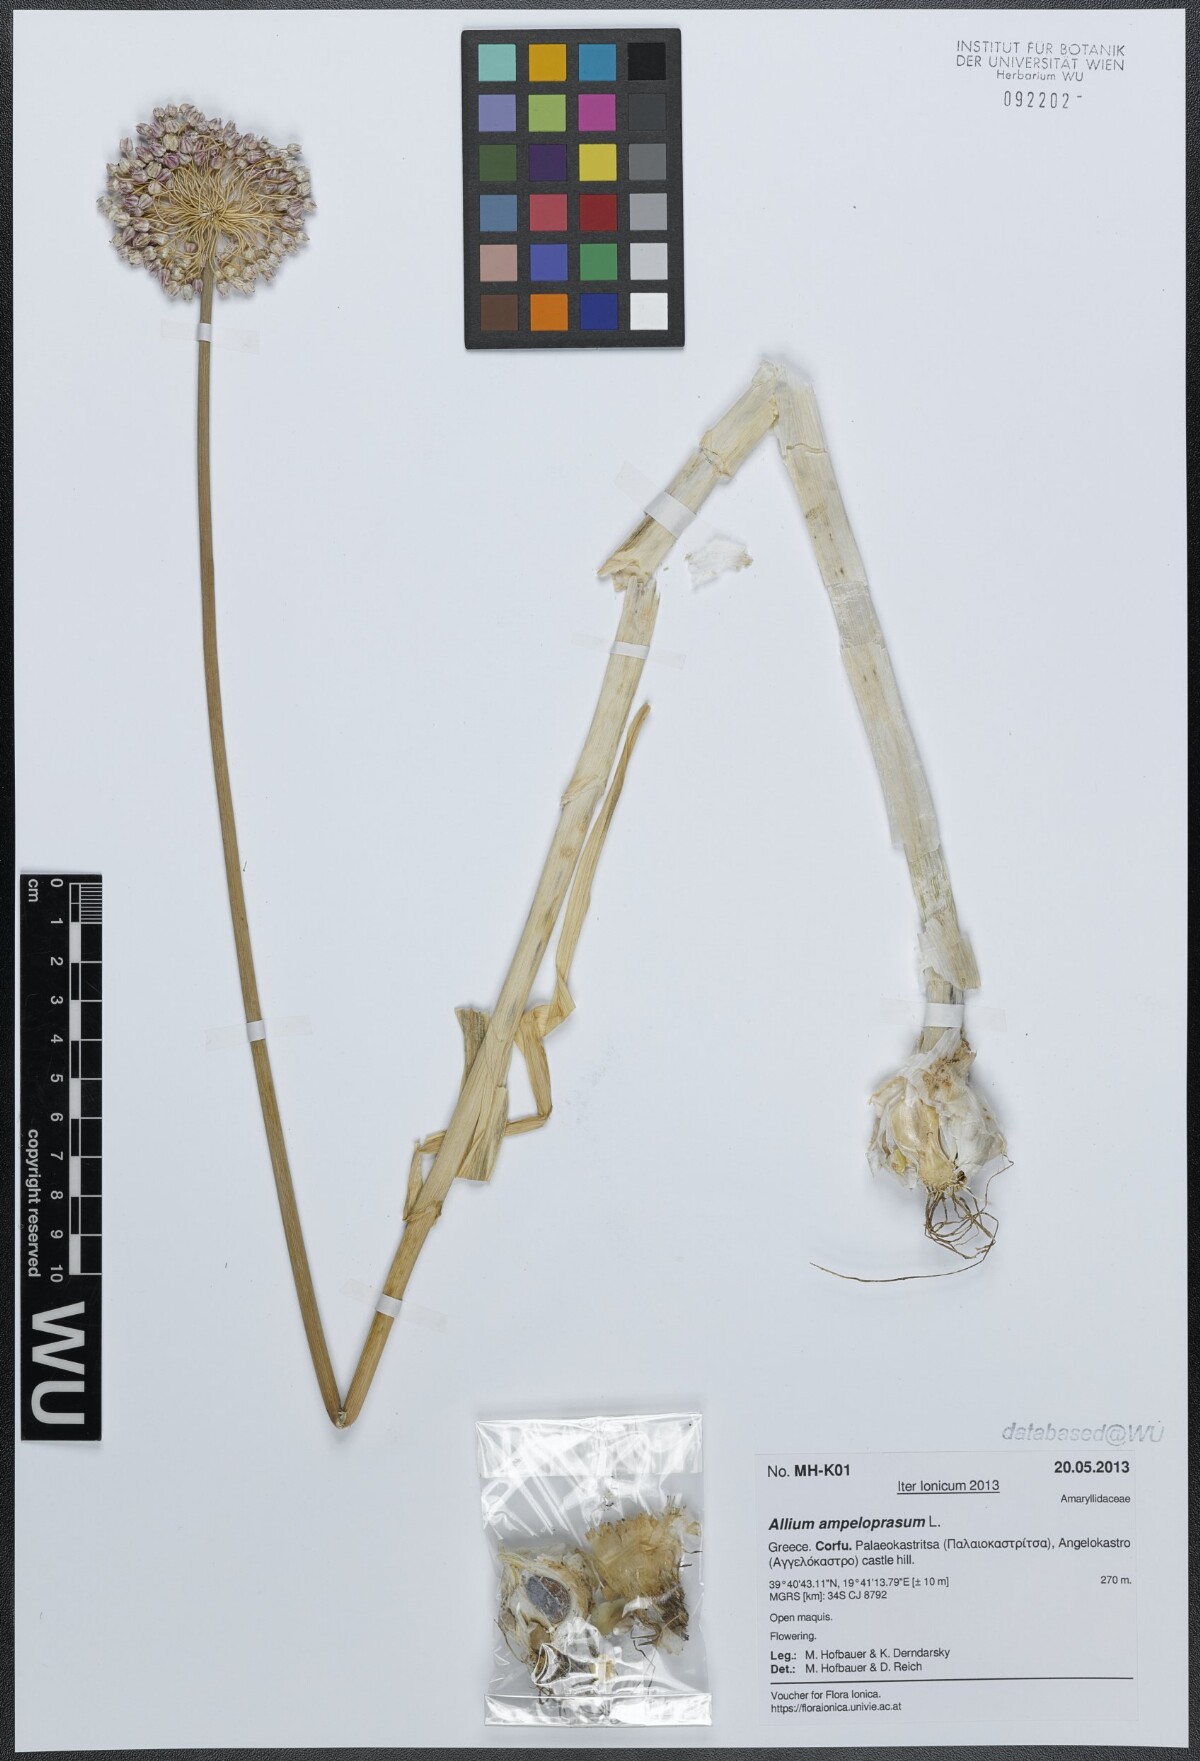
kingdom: Plantae
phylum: Tracheophyta
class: Liliopsida
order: Asparagales
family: Amaryllidaceae
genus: Allium
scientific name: Allium ampeloprasum
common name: Wild leek
